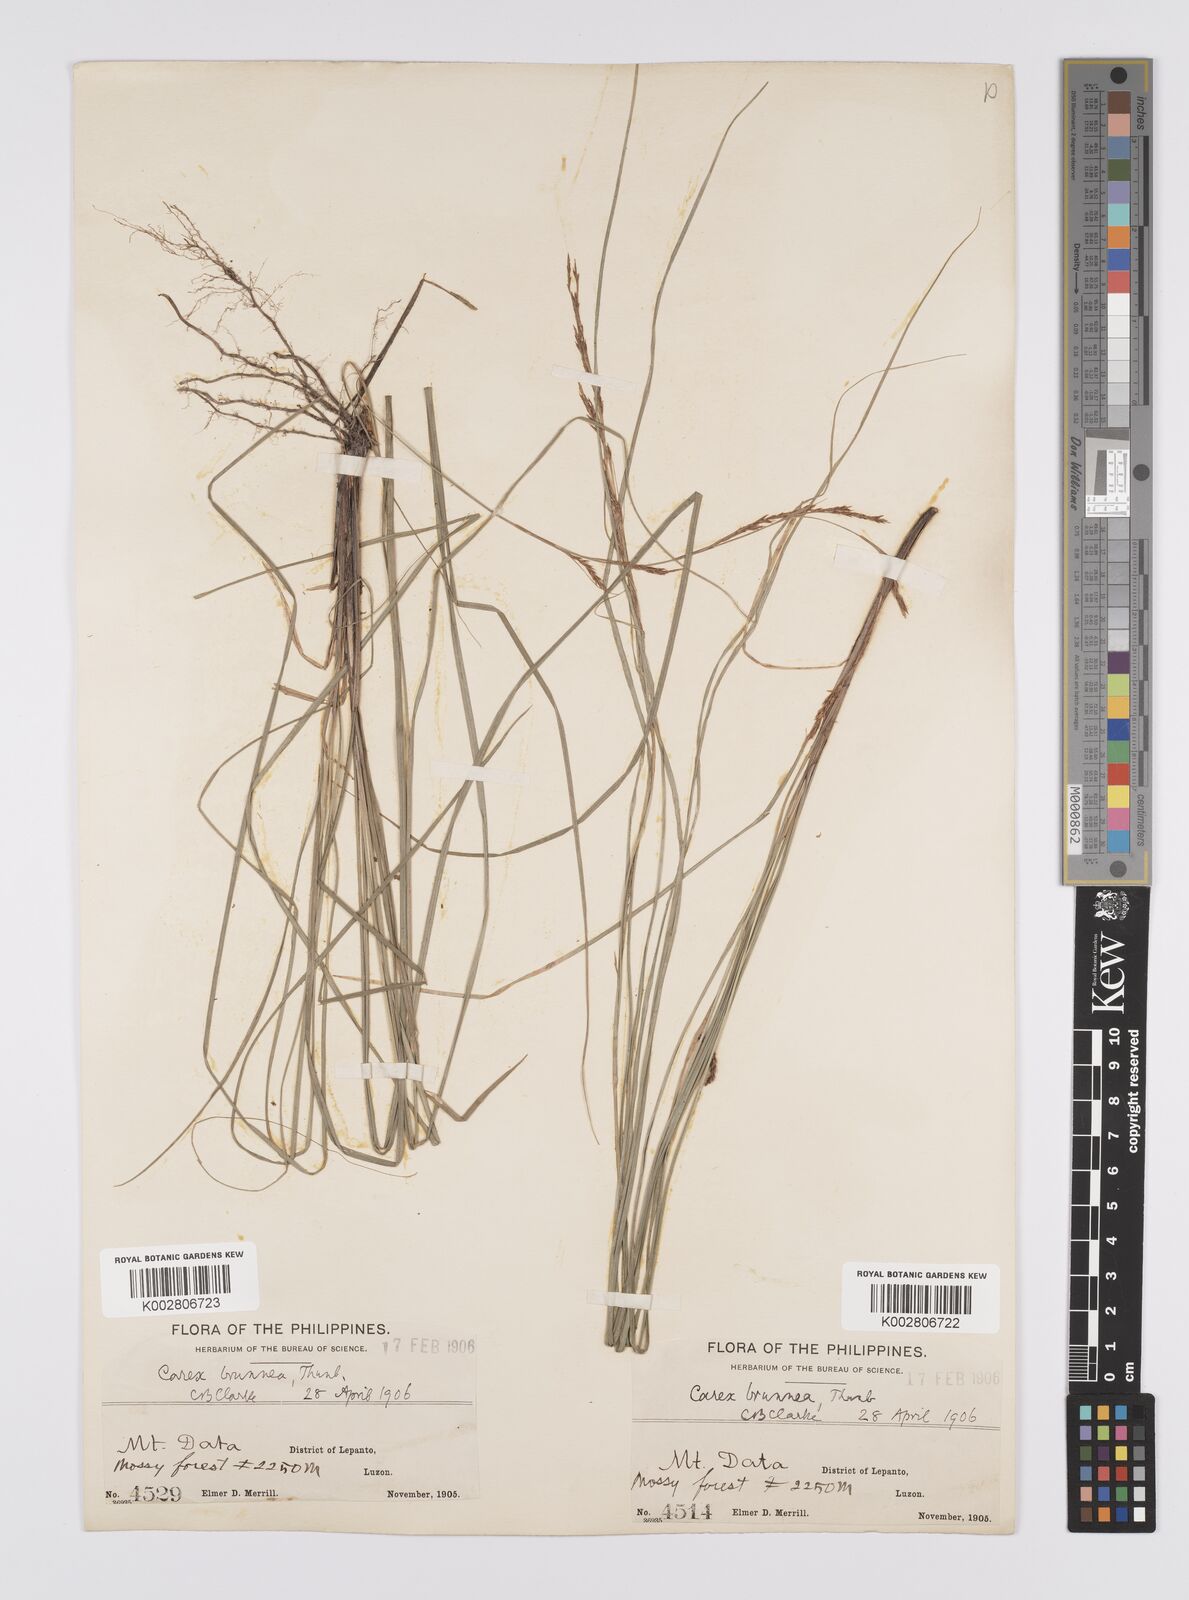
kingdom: Plantae
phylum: Tracheophyta
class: Liliopsida
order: Poales
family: Cyperaceae
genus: Carex
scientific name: Carex brunnea
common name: Greater brown sedge
